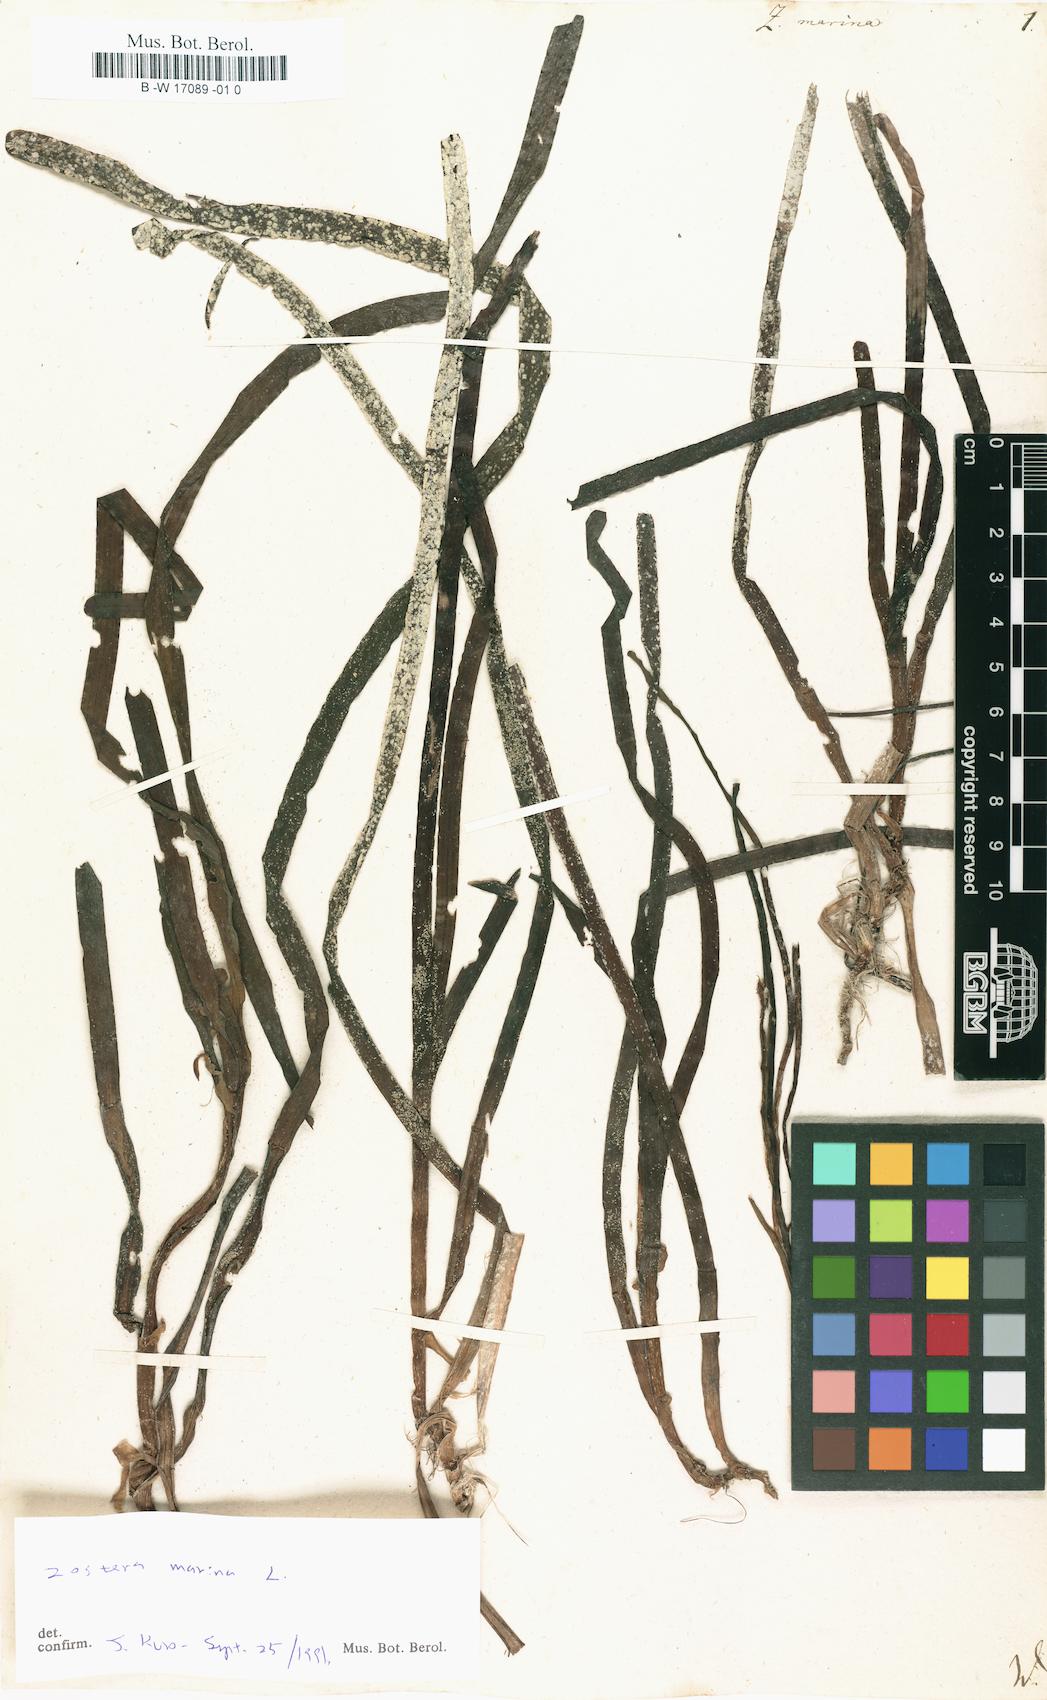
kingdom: Plantae
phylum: Tracheophyta
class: Liliopsida
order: Alismatales
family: Zosteraceae
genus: Zostera
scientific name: Zostera marina
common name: Eelgrass
